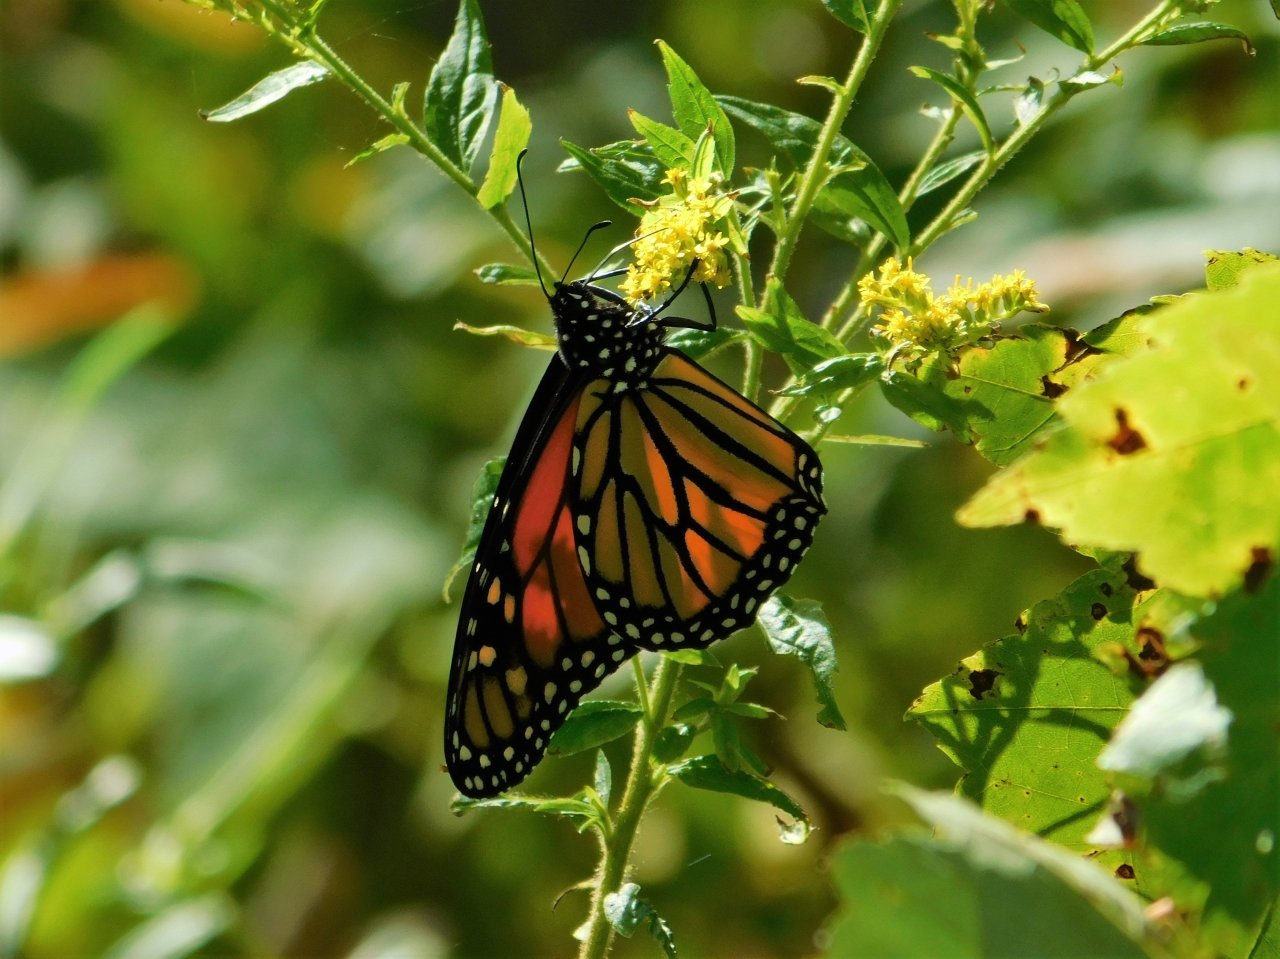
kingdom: Animalia
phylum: Arthropoda
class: Insecta
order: Lepidoptera
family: Nymphalidae
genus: Danaus
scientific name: Danaus plexippus
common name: Monarch
